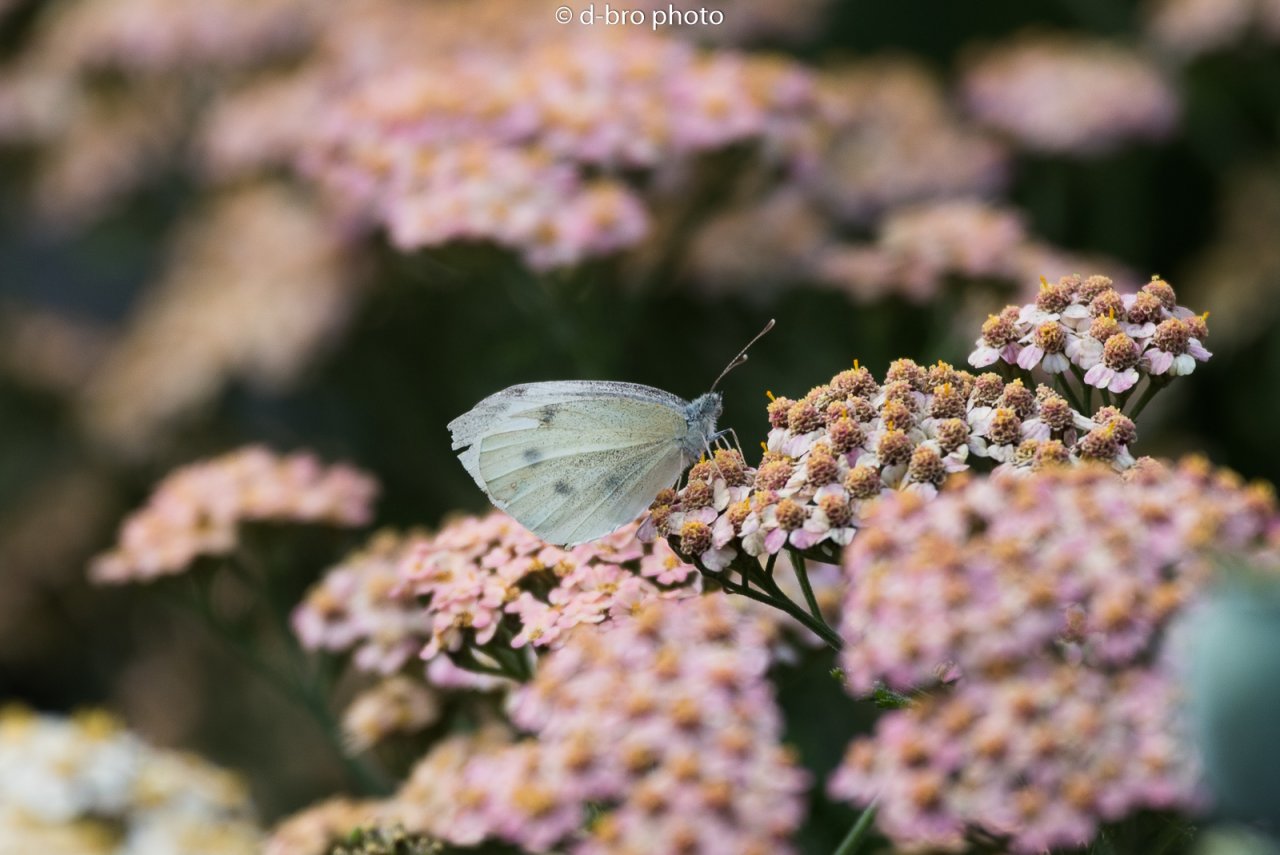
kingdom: Animalia
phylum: Arthropoda
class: Insecta
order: Lepidoptera
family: Pieridae
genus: Pieris
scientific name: Pieris rapae
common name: Cabbage White
